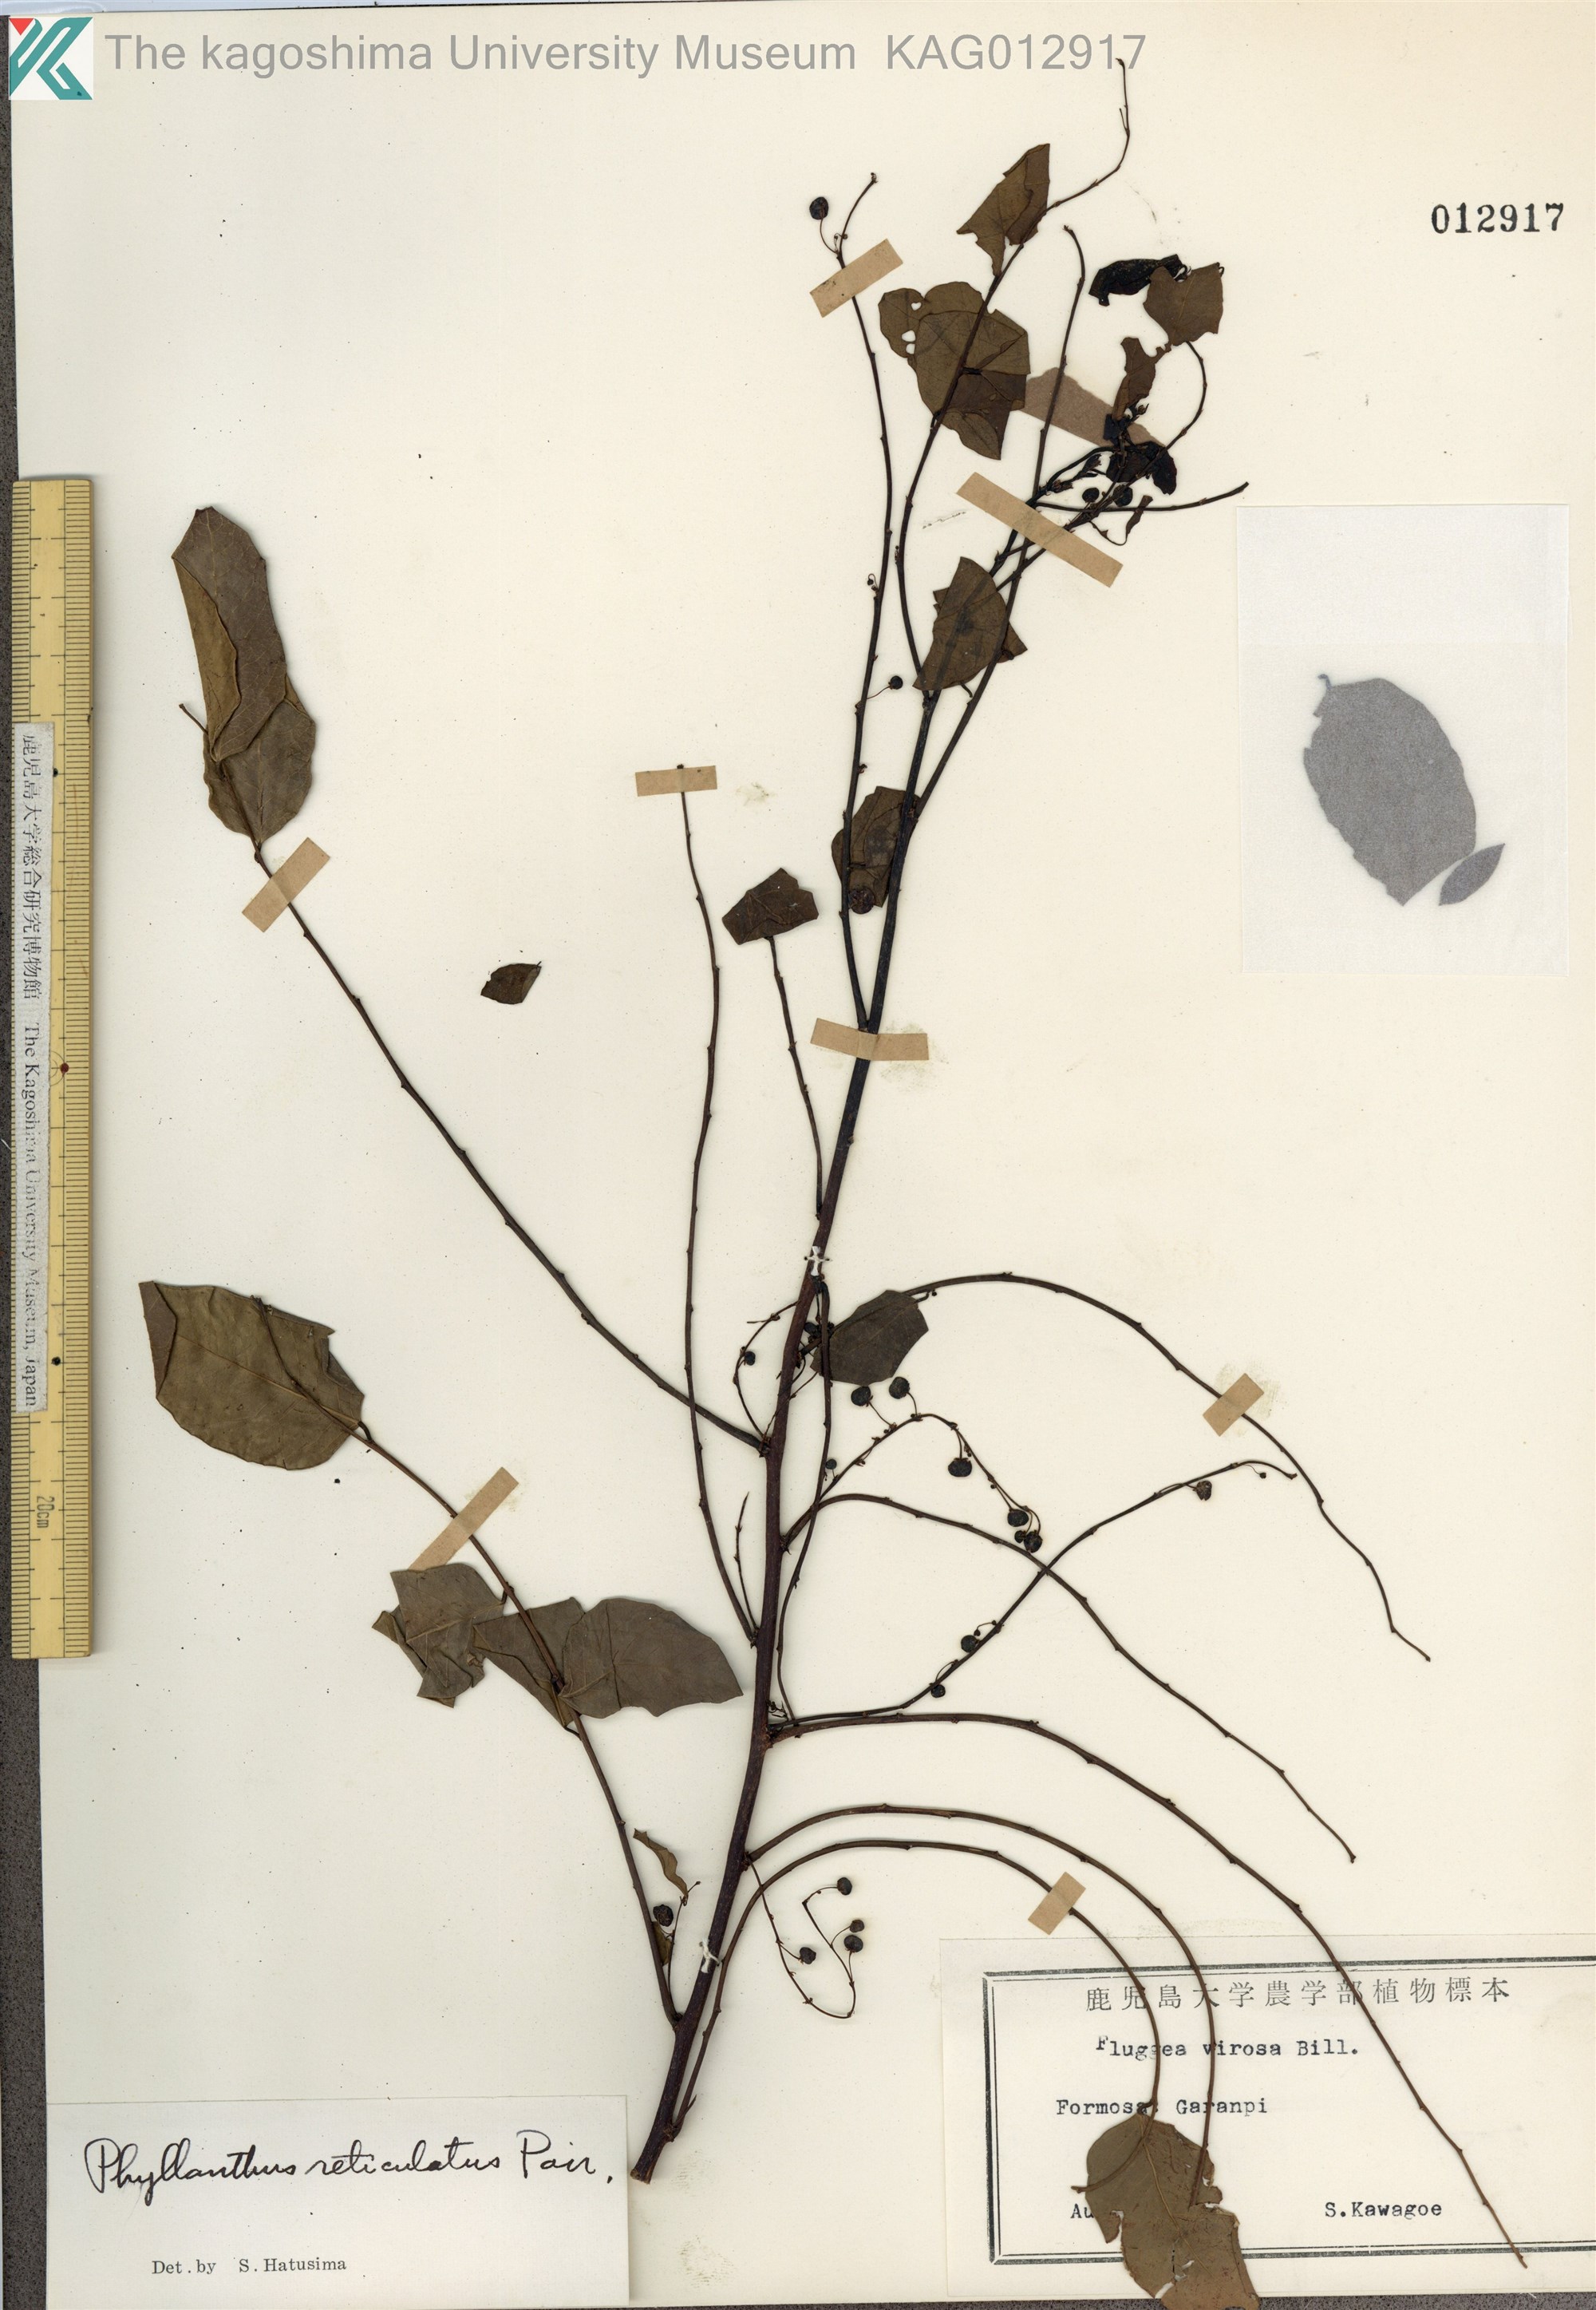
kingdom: Plantae
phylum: Tracheophyta
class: Magnoliopsida
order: Malpighiales
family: Phyllanthaceae
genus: Phyllanthus
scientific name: Phyllanthus reticulatus
